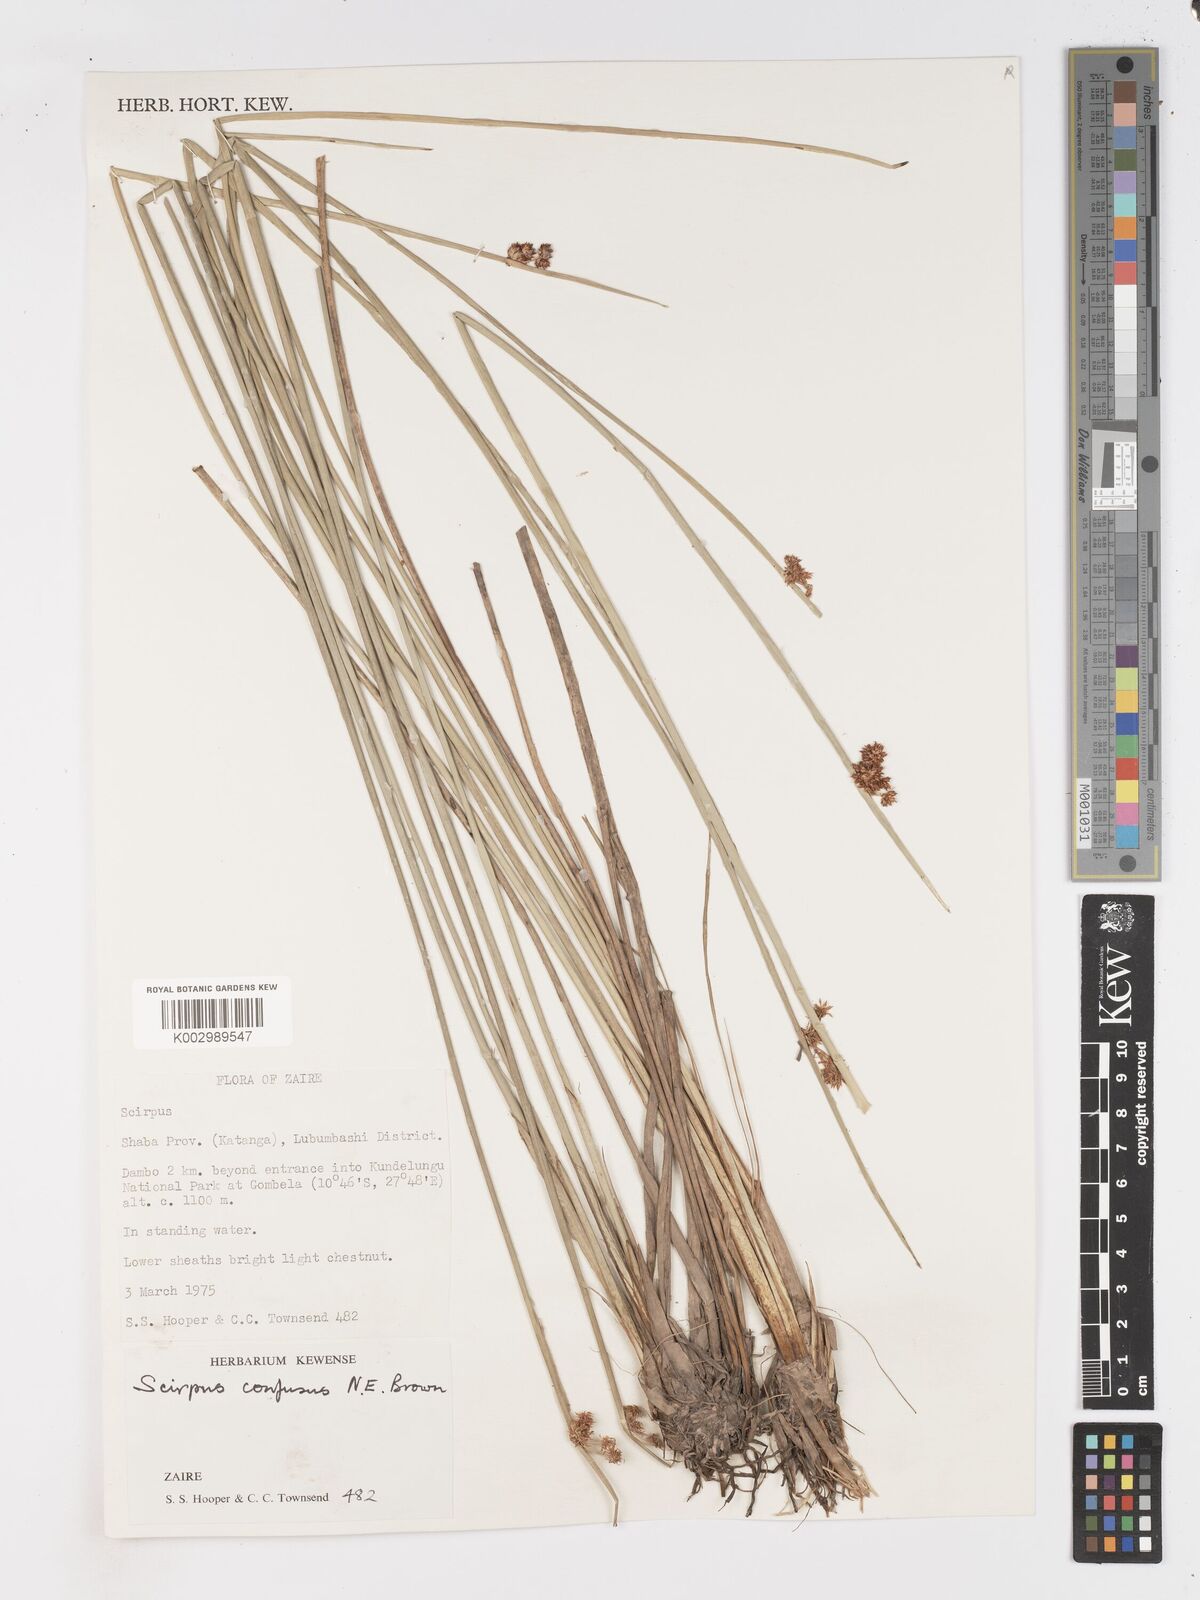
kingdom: Plantae
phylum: Tracheophyta
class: Liliopsida
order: Poales
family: Cyperaceae
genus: Schoenoplectiella
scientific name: Schoenoplectiella confusa
